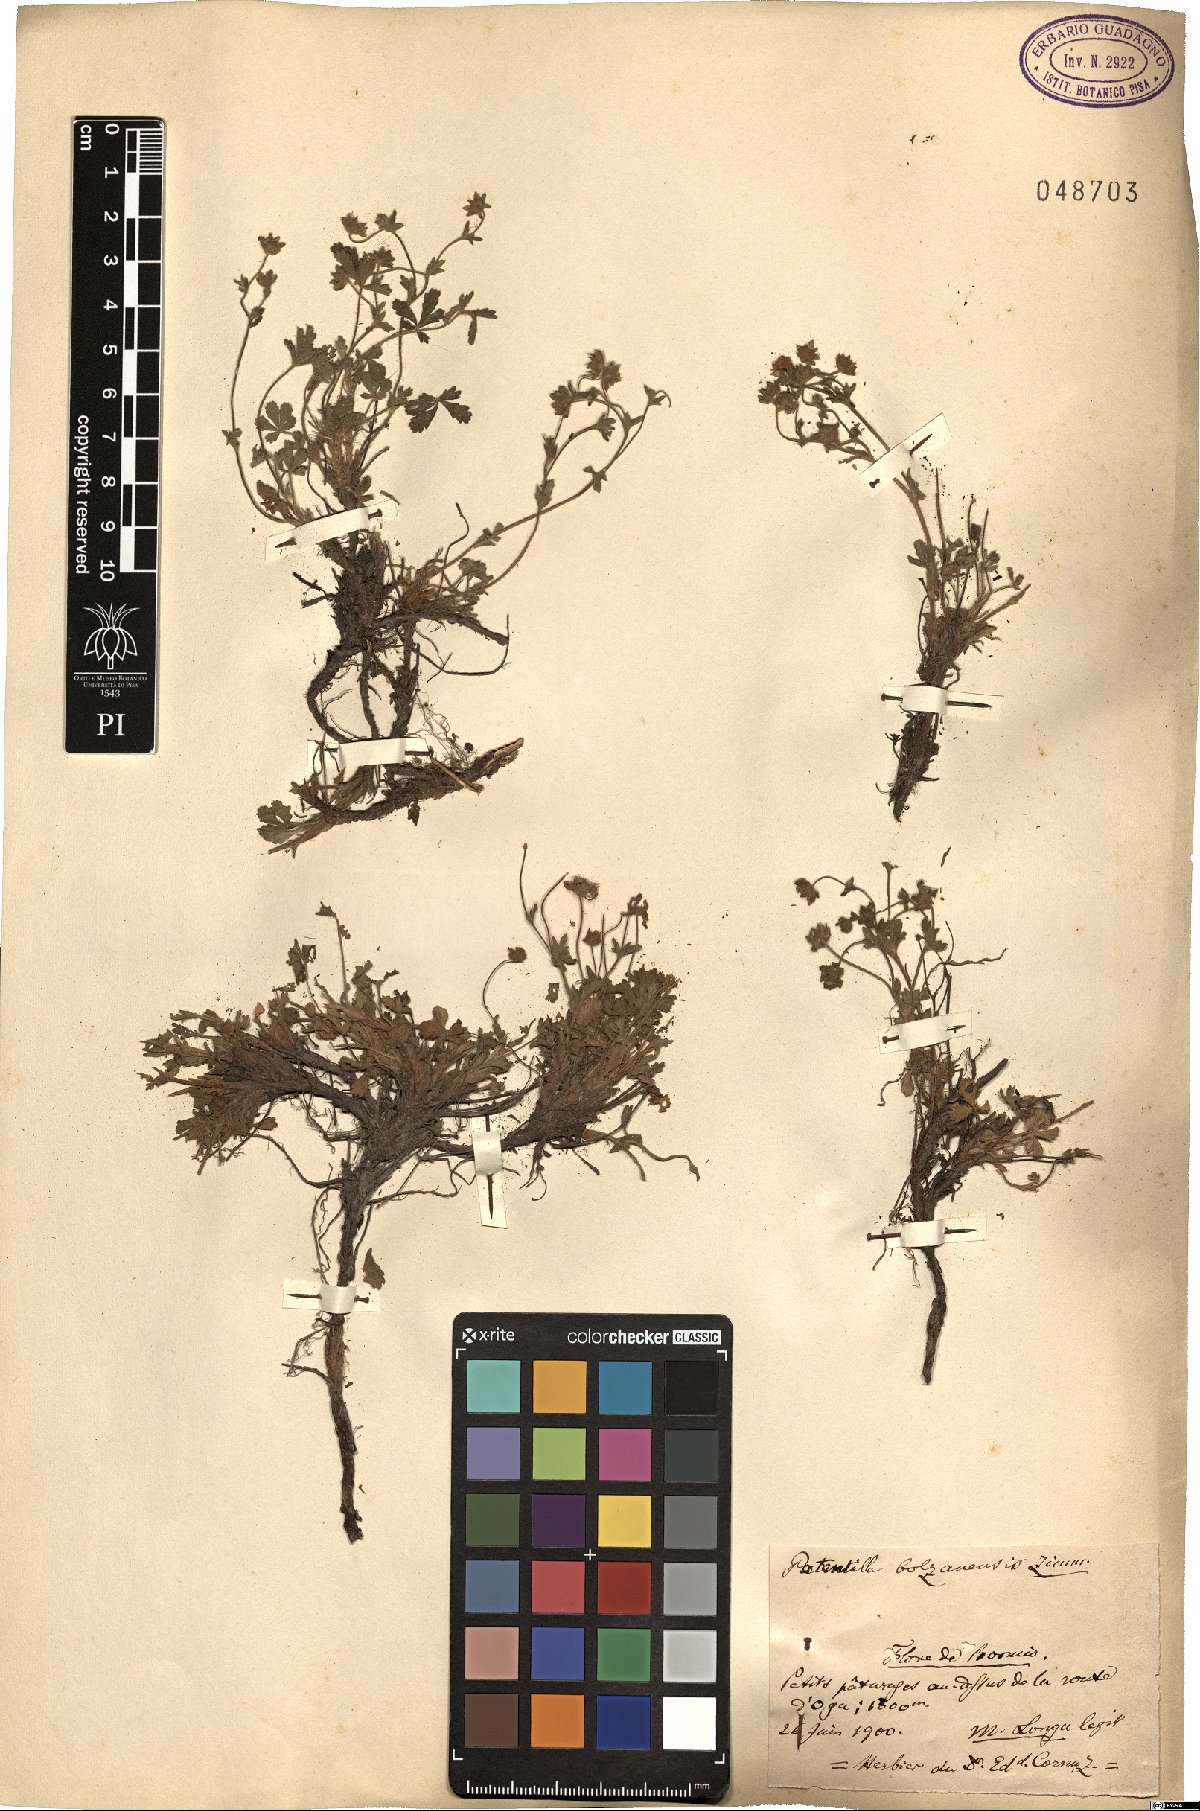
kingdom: Plantae
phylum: Tracheophyta
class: Magnoliopsida
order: Rosales
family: Rosaceae
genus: Potentilla
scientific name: Potentilla cinerea
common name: Ashy cinquefoil
